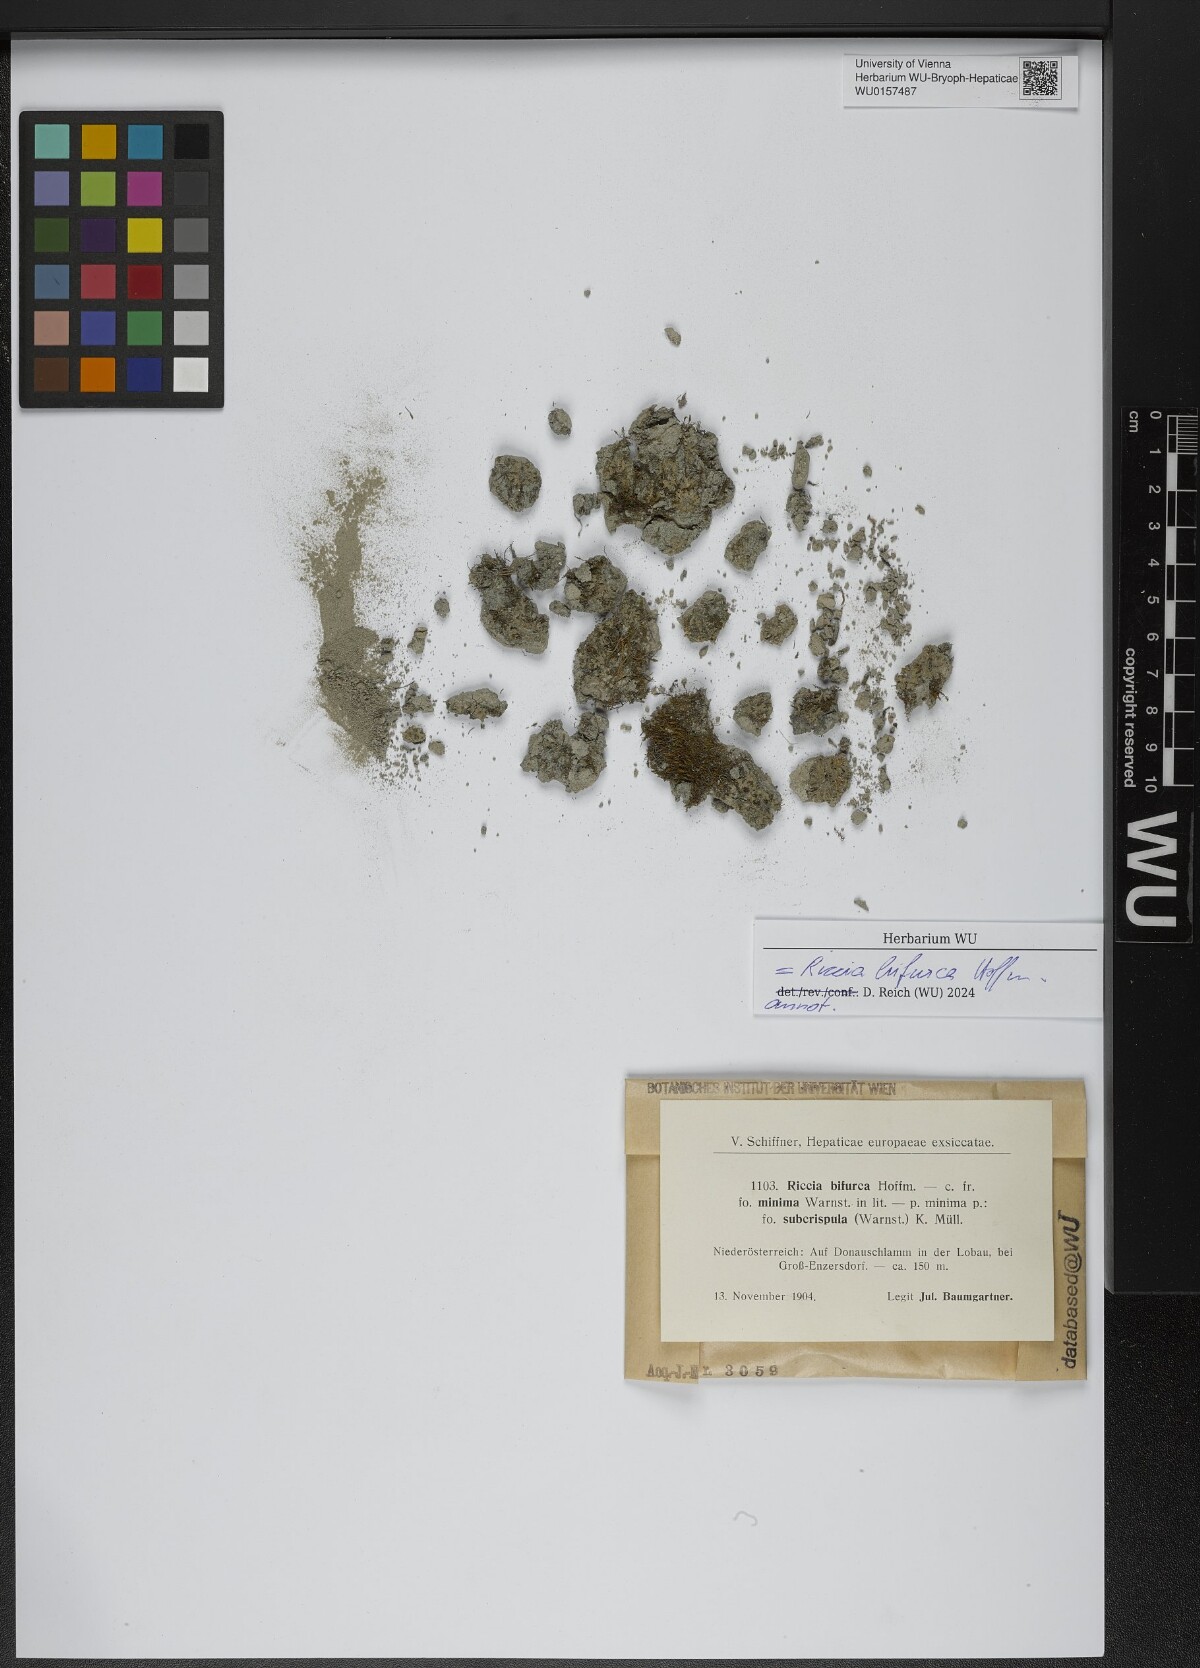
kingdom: Plantae
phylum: Marchantiophyta
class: Marchantiopsida
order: Marchantiales
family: Ricciaceae
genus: Riccia
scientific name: Riccia bifurca
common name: Lizard crystalwort
